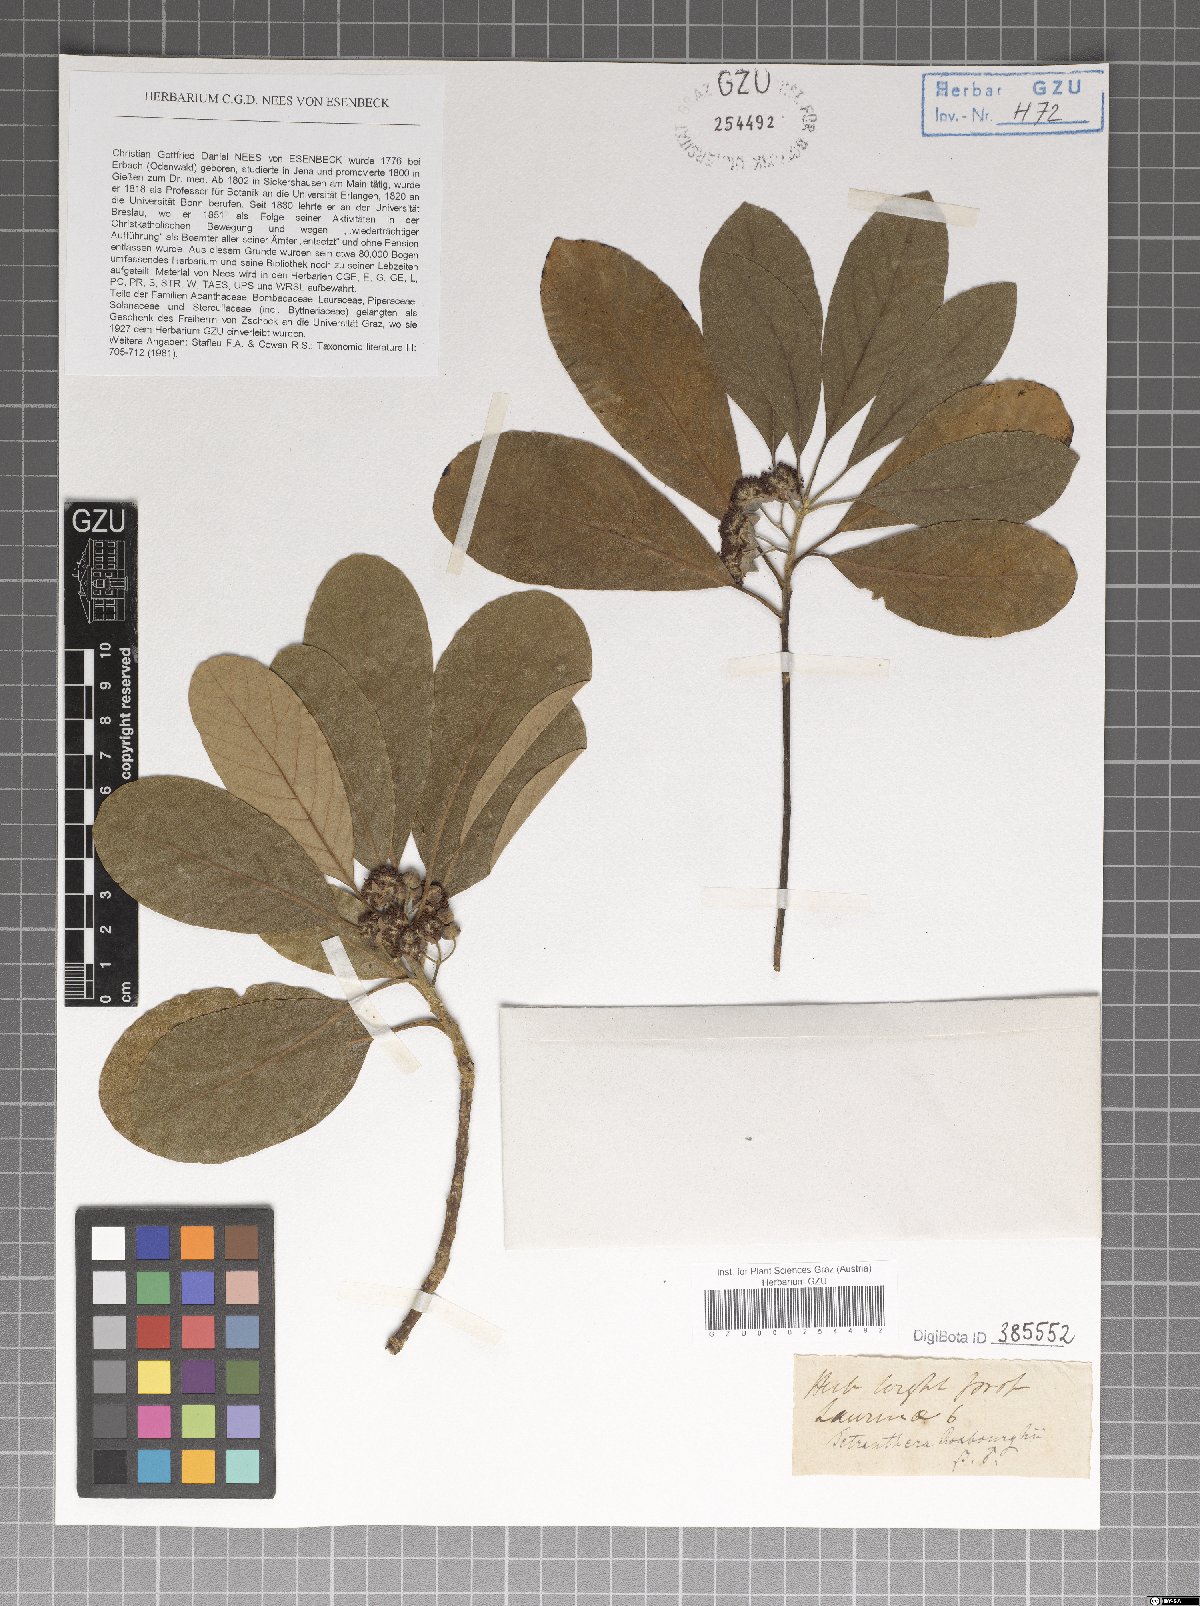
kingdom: Plantae
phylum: Tracheophyta
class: Magnoliopsida
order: Laurales
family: Lauraceae
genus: Litsea
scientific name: Litsea glutinosa
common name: Indian-laurel
